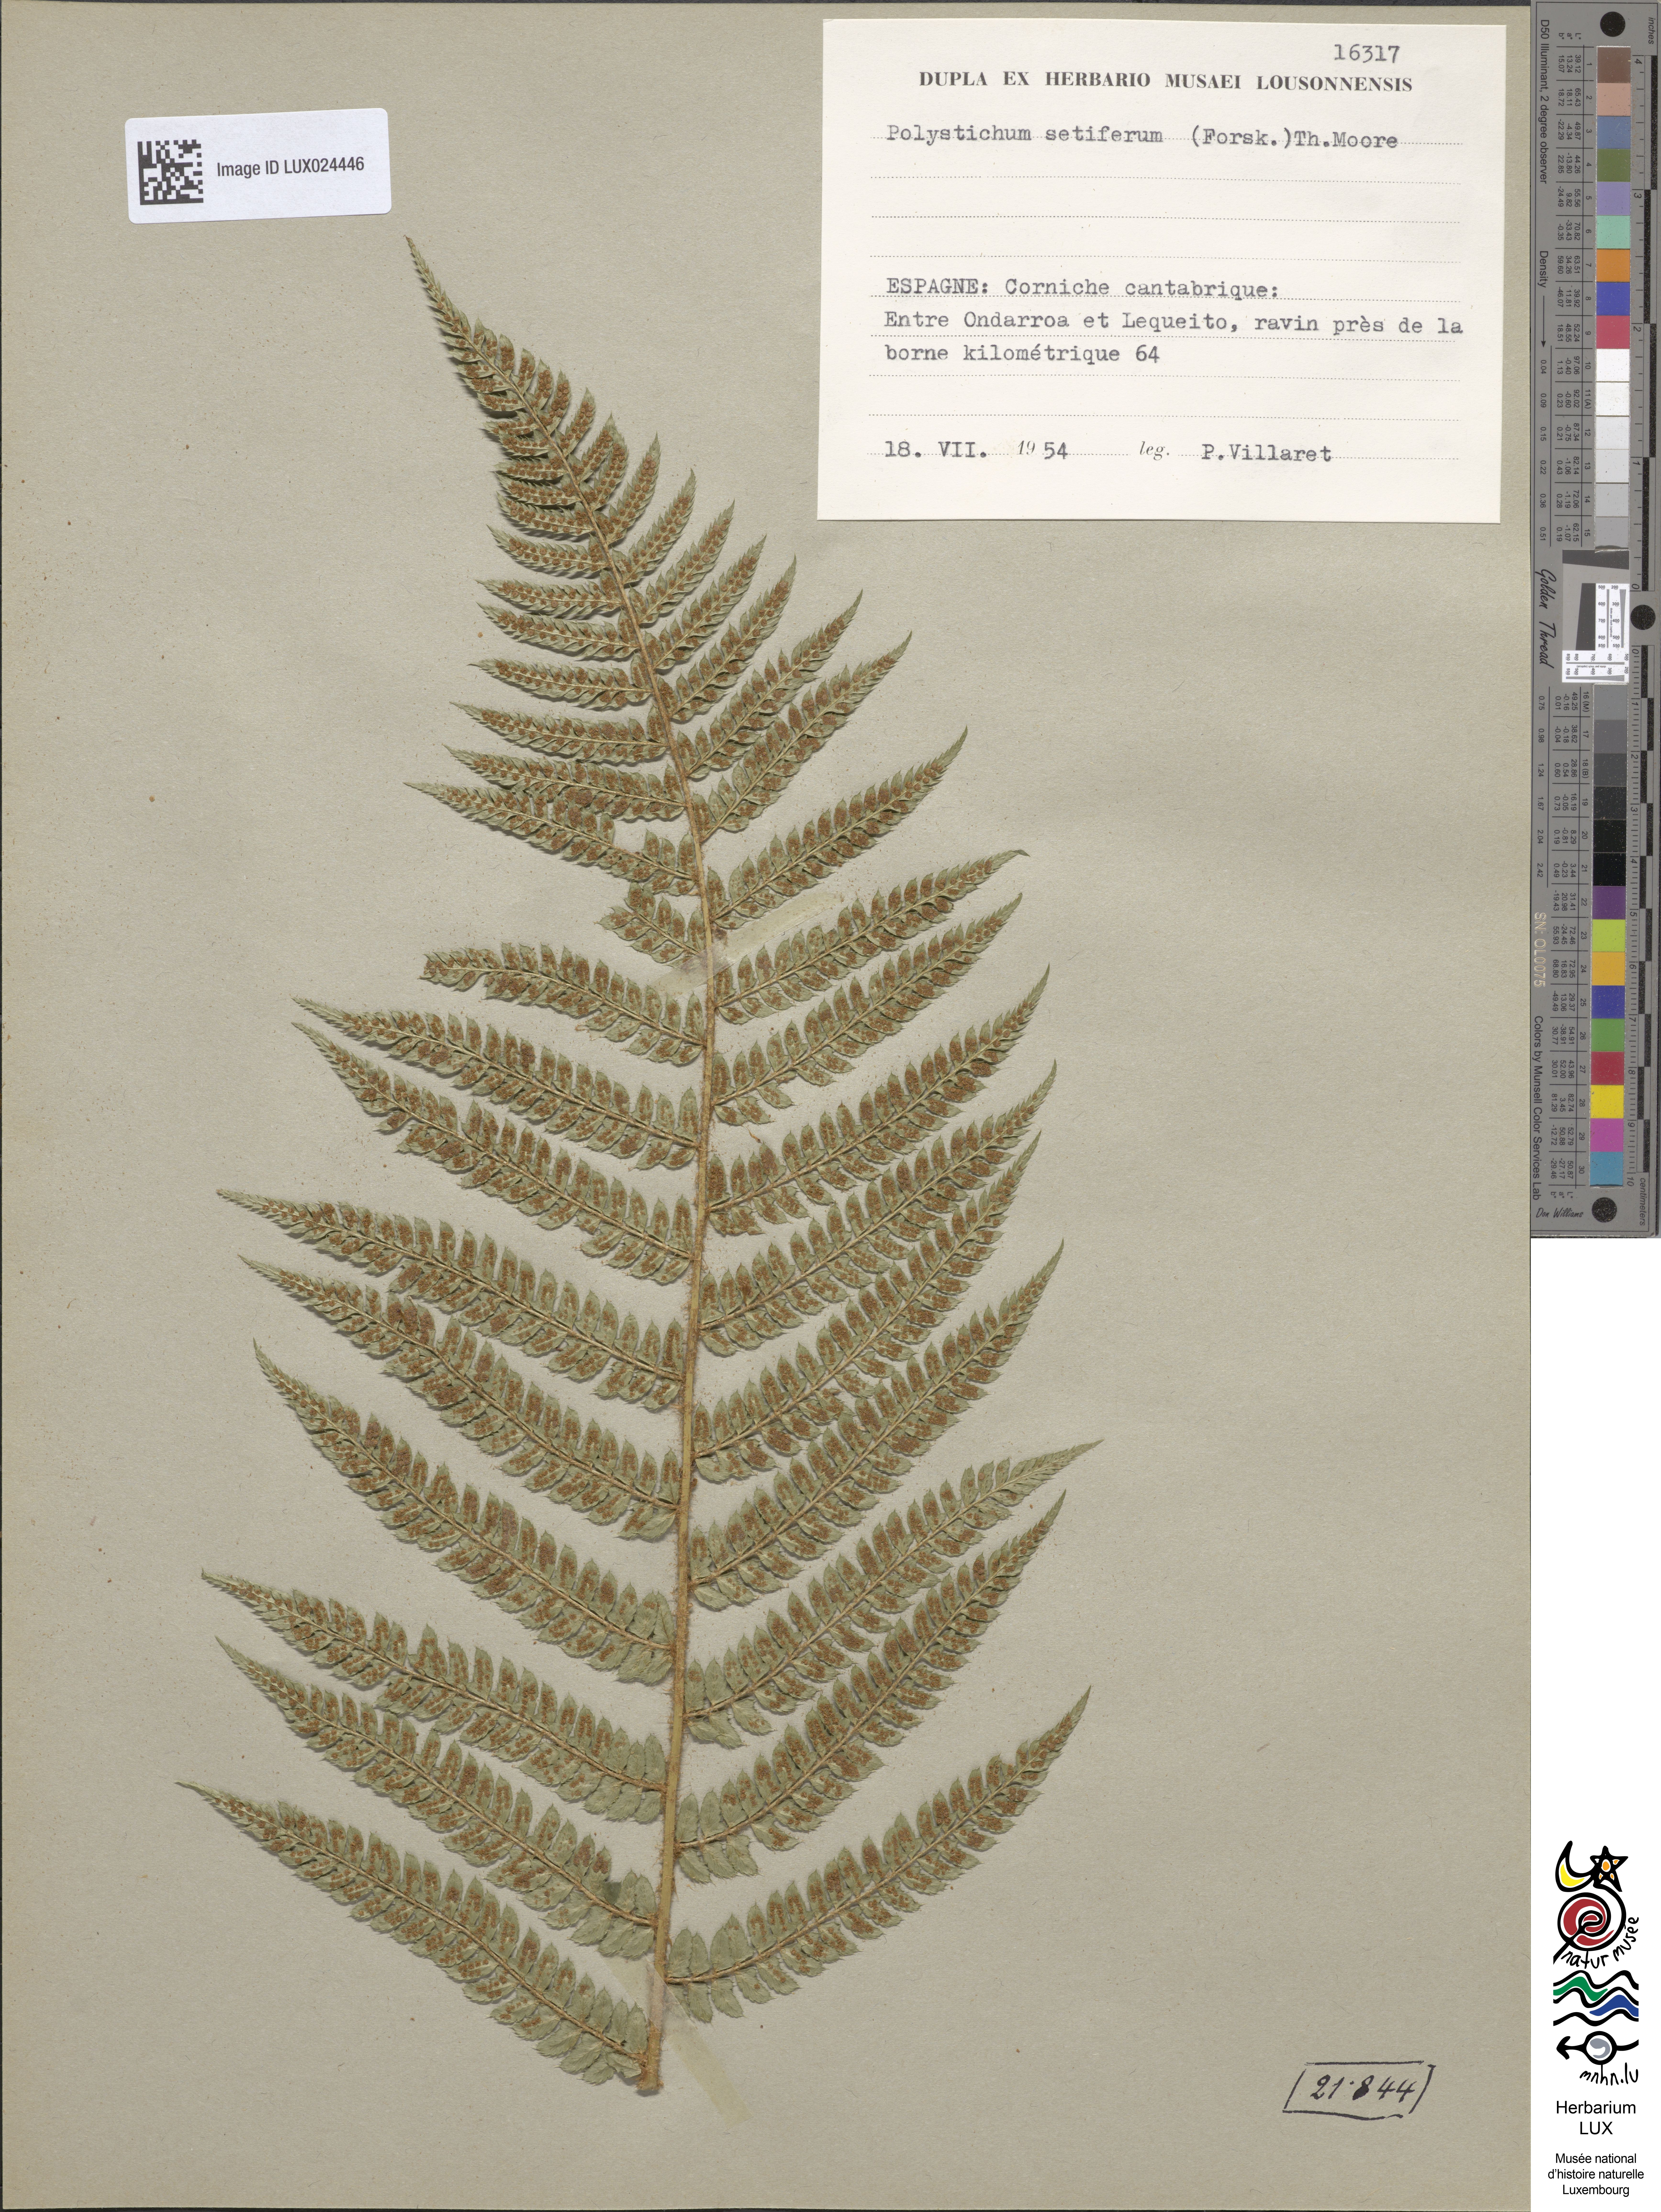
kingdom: Plantae
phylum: Tracheophyta
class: Polypodiopsida
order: Polypodiales
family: Dryopteridaceae
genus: Polystichum
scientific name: Polystichum setiferum
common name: Soft shield-fern
